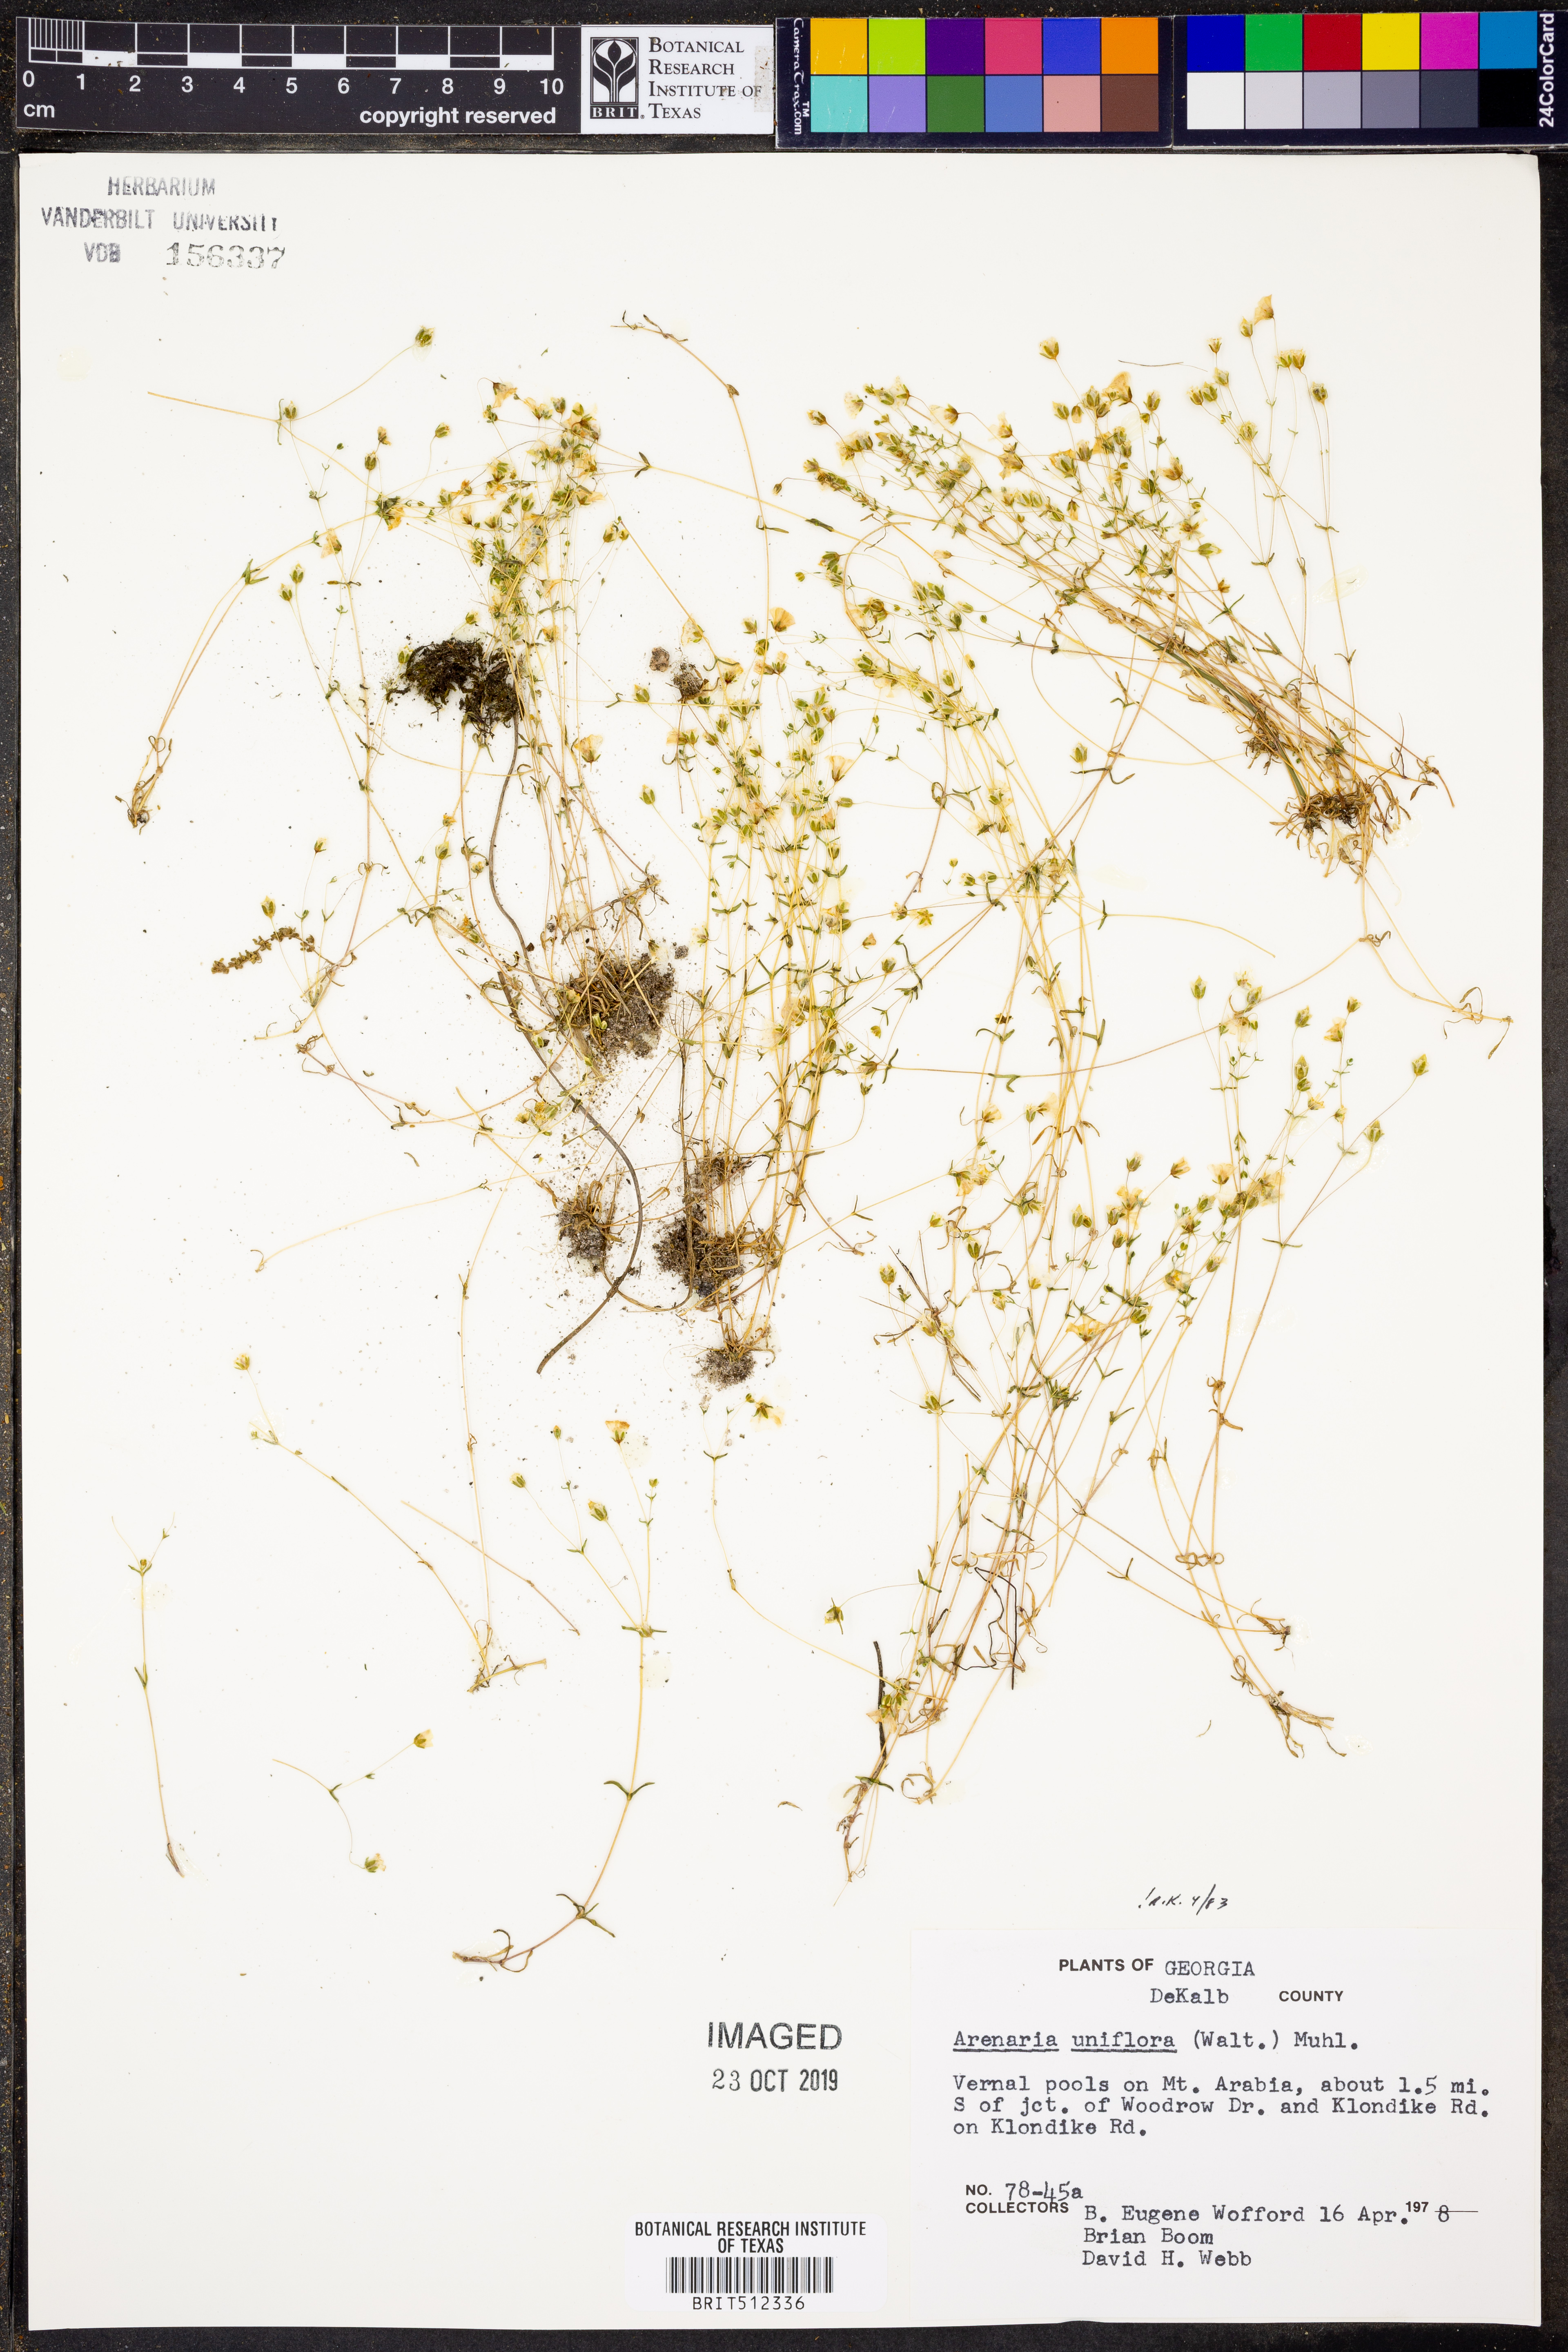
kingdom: Plantae
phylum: Tracheophyta
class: Magnoliopsida
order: Caryophyllales
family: Caryophyllaceae
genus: Geocarpon
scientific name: Geocarpon uniflorum
